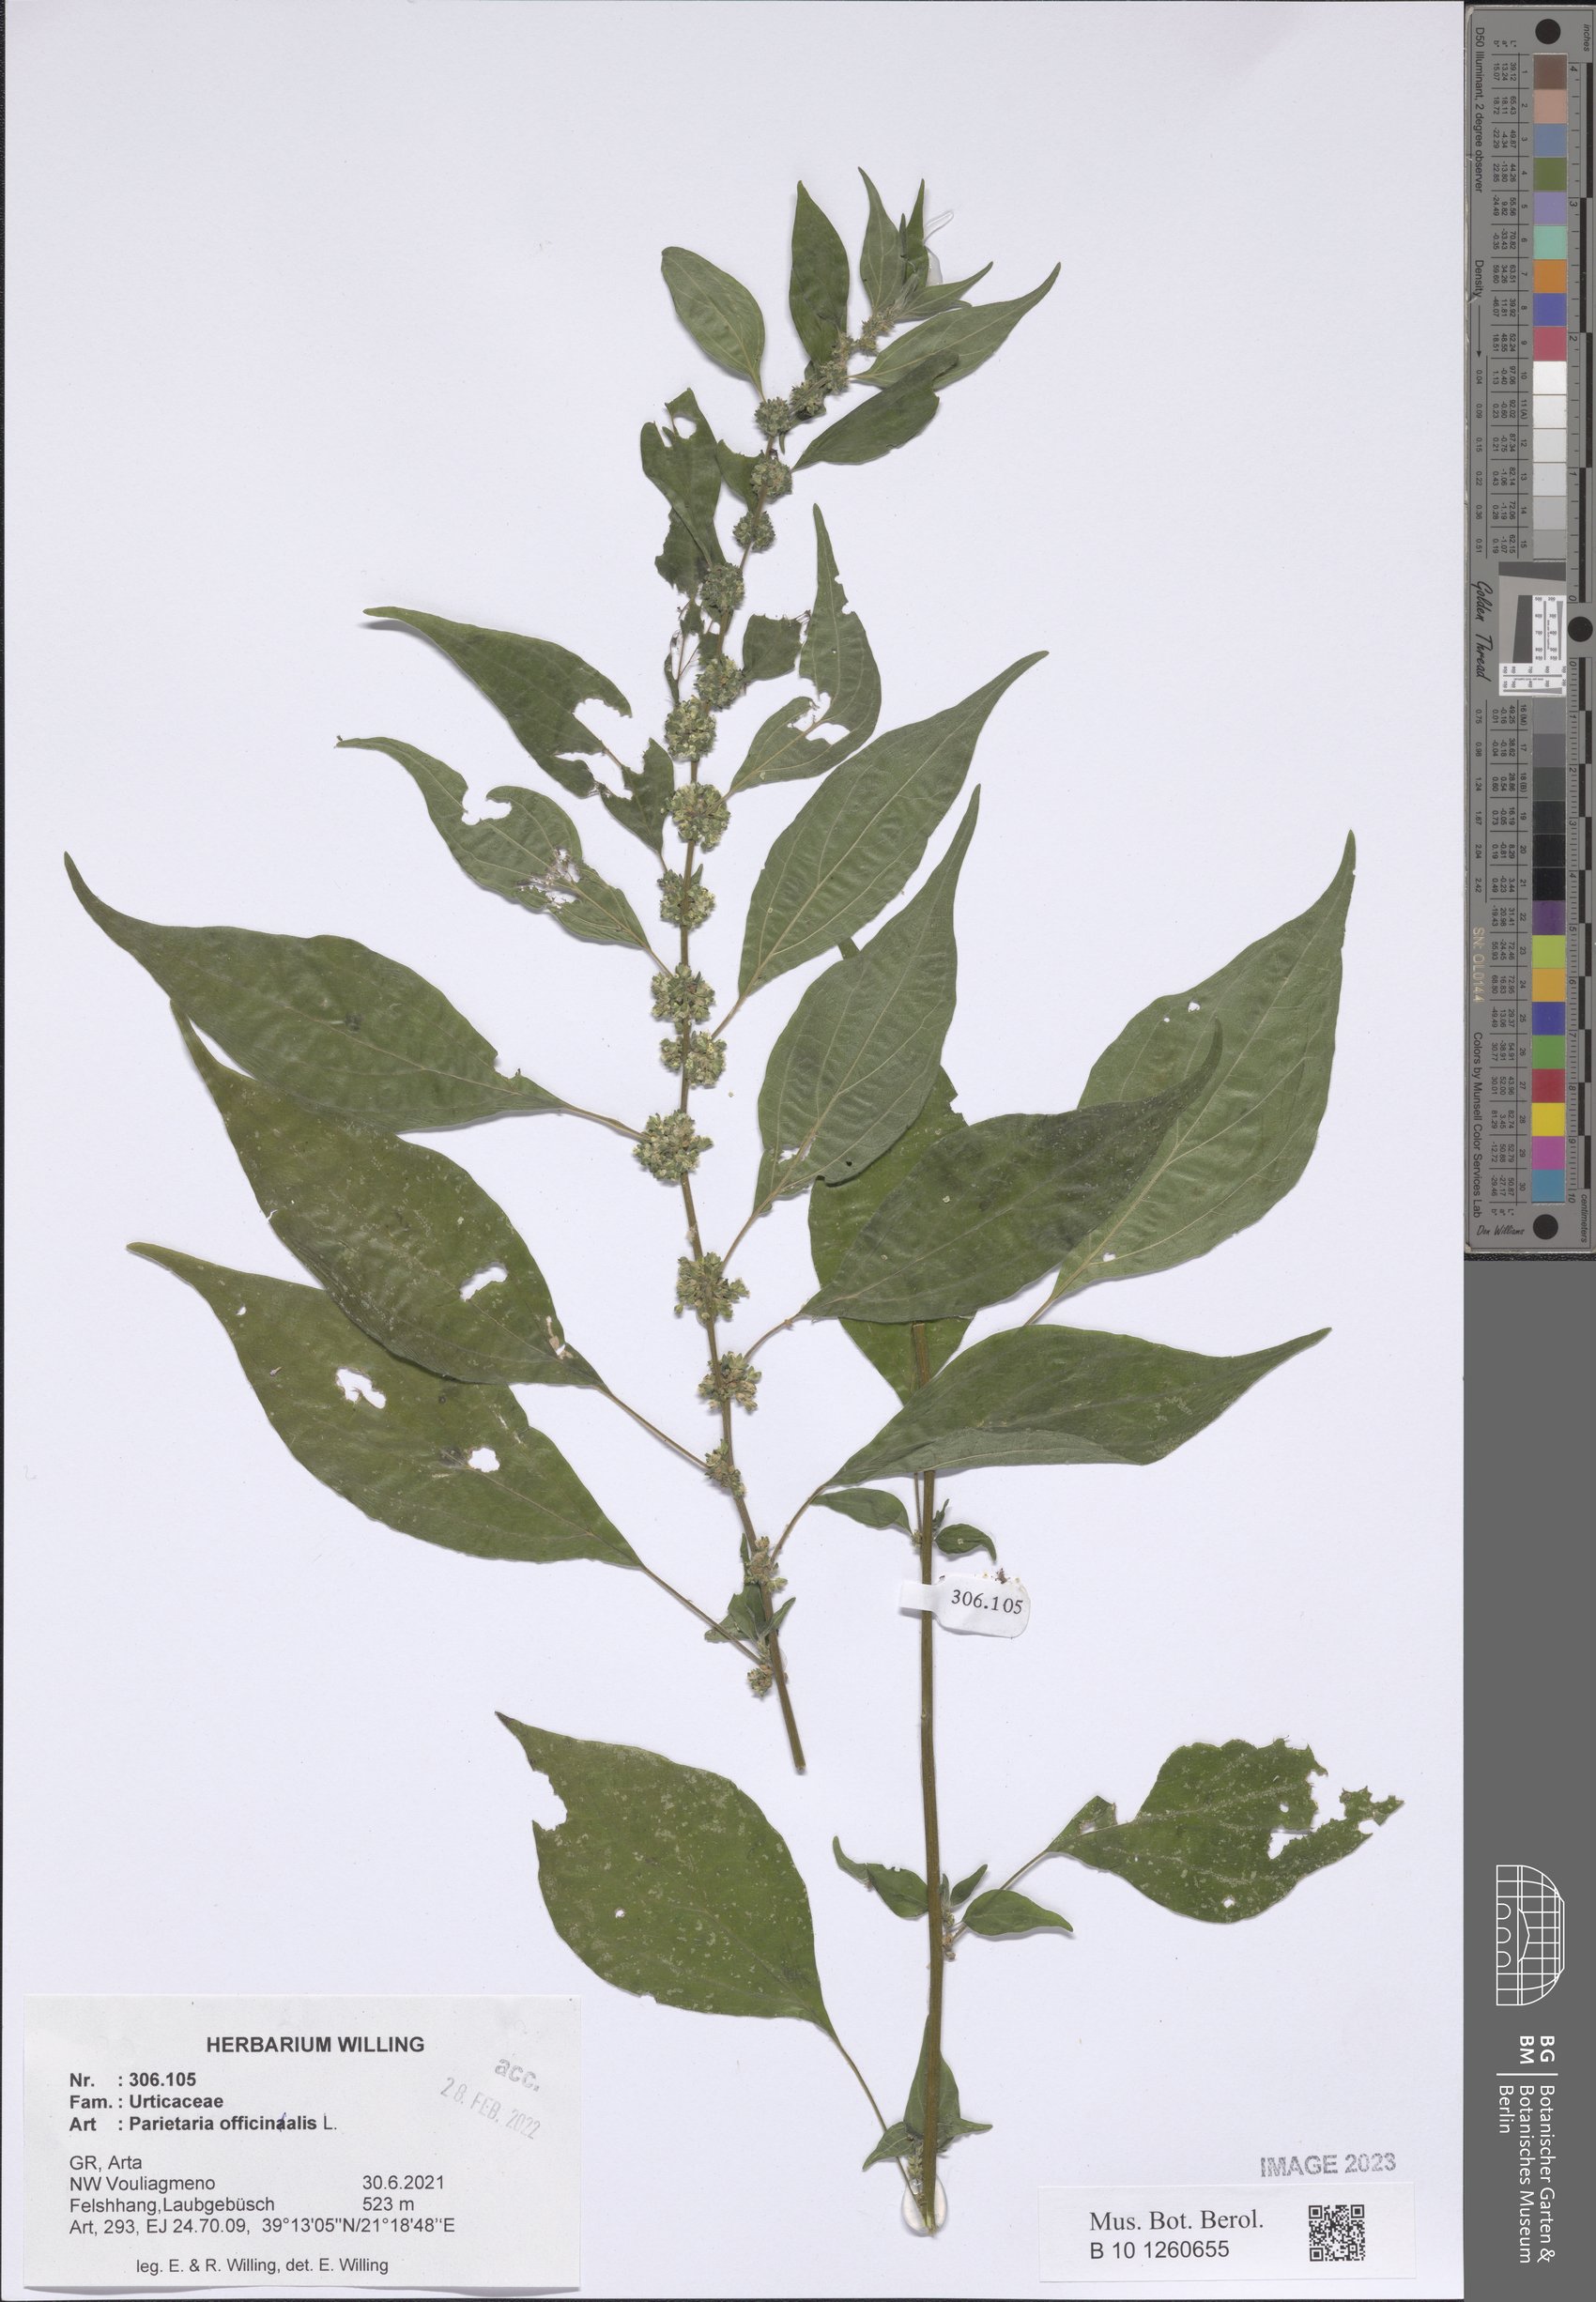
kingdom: Plantae
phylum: Tracheophyta
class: Magnoliopsida
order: Rosales
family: Urticaceae
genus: Parietaria
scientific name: Parietaria officinalis
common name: Eastern pellitory-of-the-wall
